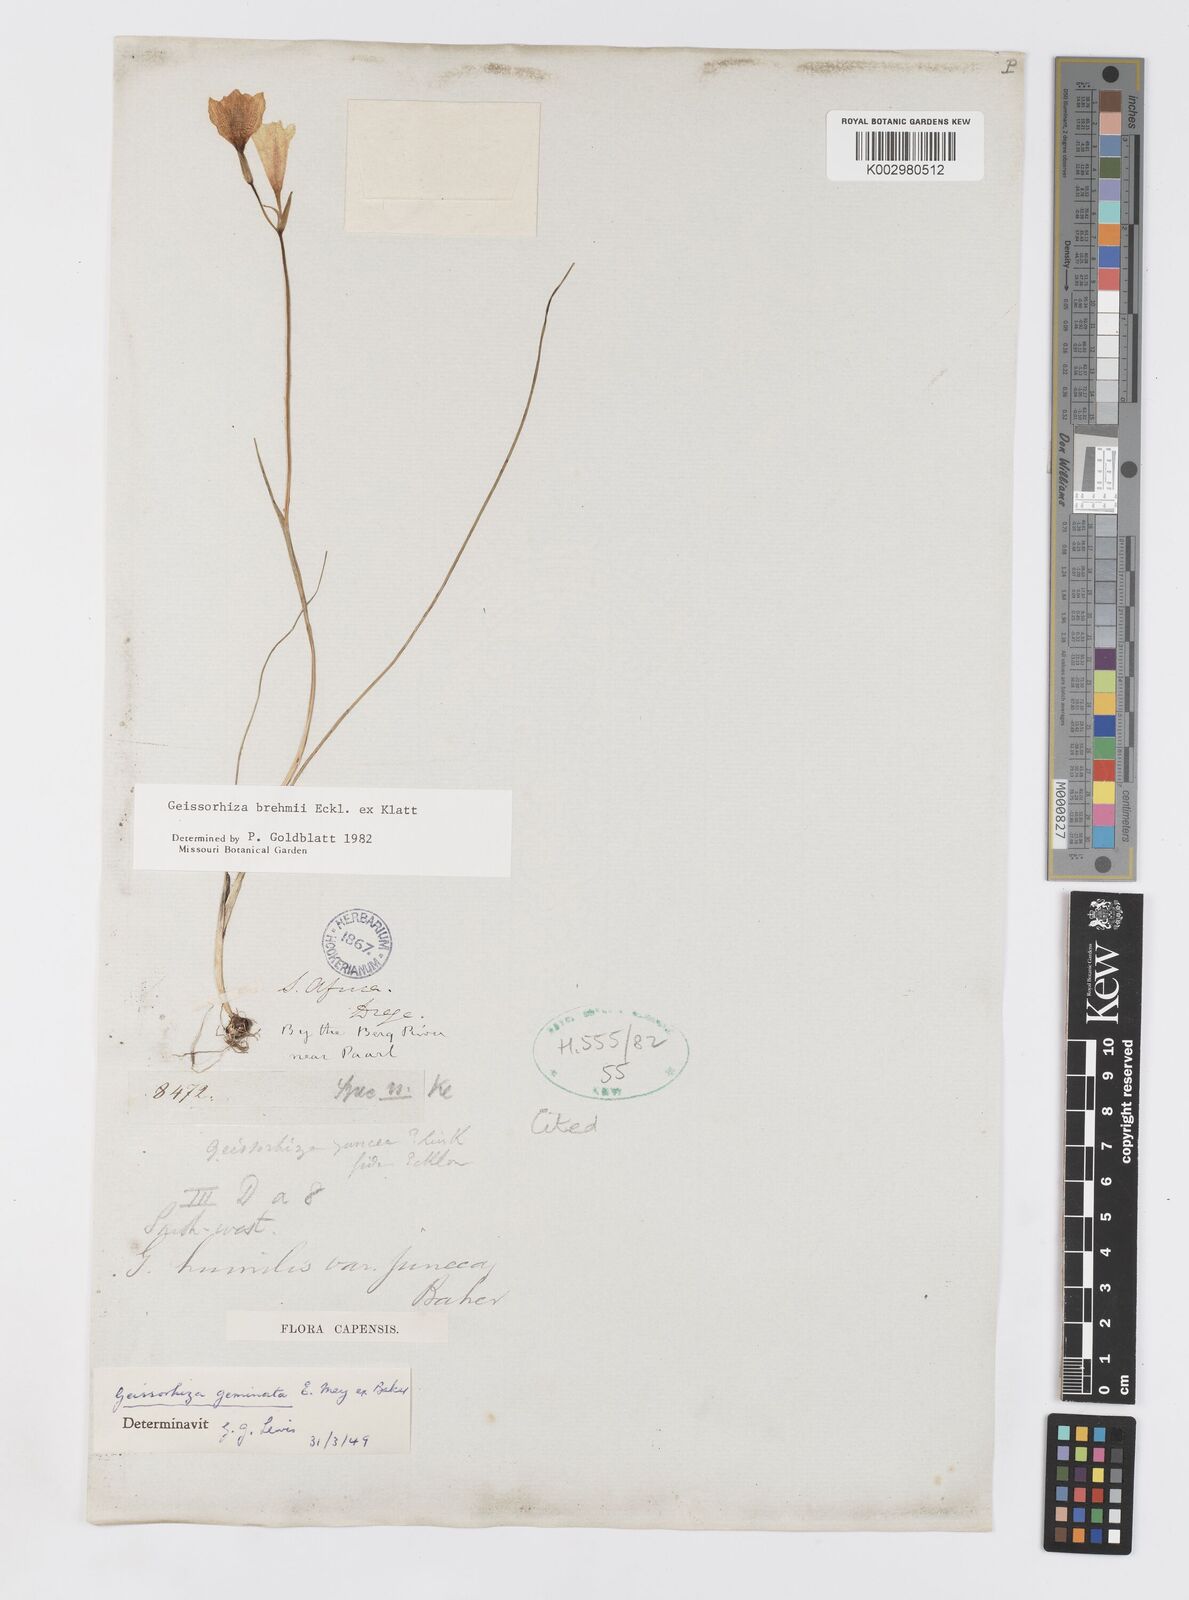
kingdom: Plantae
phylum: Tracheophyta
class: Liliopsida
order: Asparagales
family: Iridaceae
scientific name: Iridaceae
